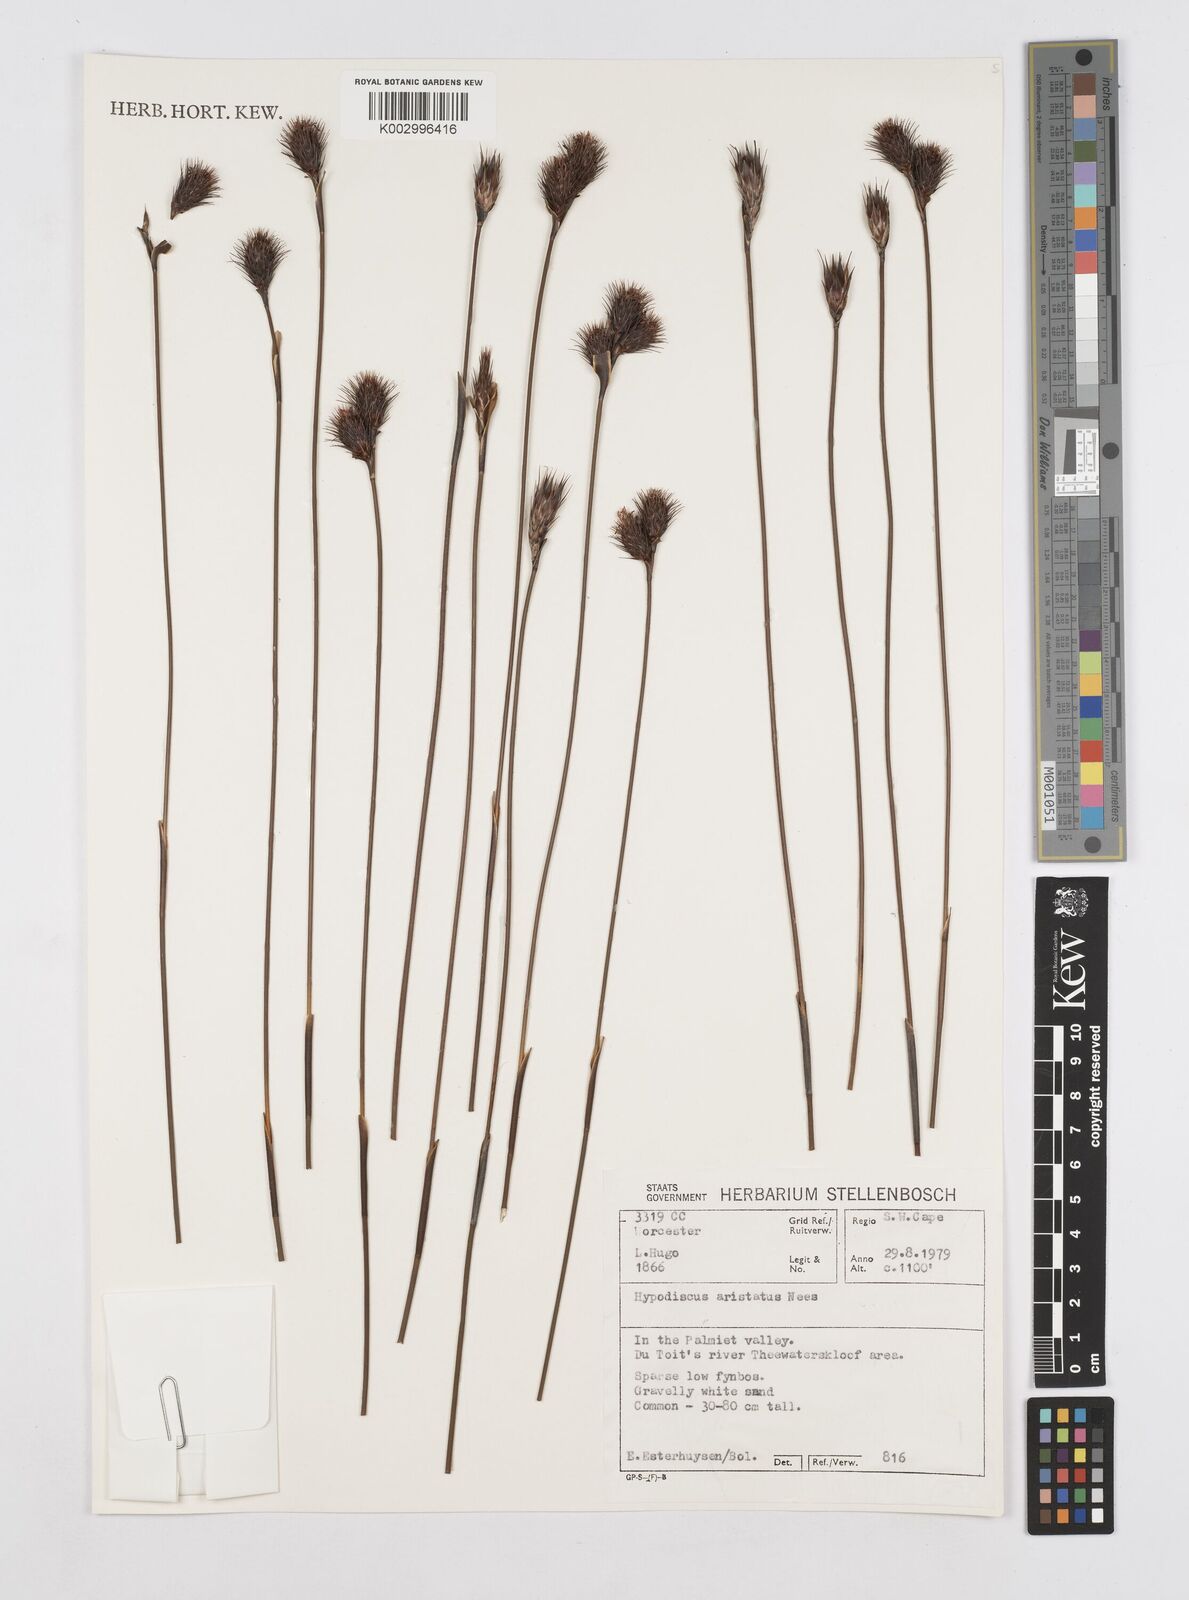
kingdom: Plantae
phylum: Tracheophyta
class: Liliopsida
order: Poales
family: Restionaceae
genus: Hypodiscus
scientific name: Hypodiscus aristatus
